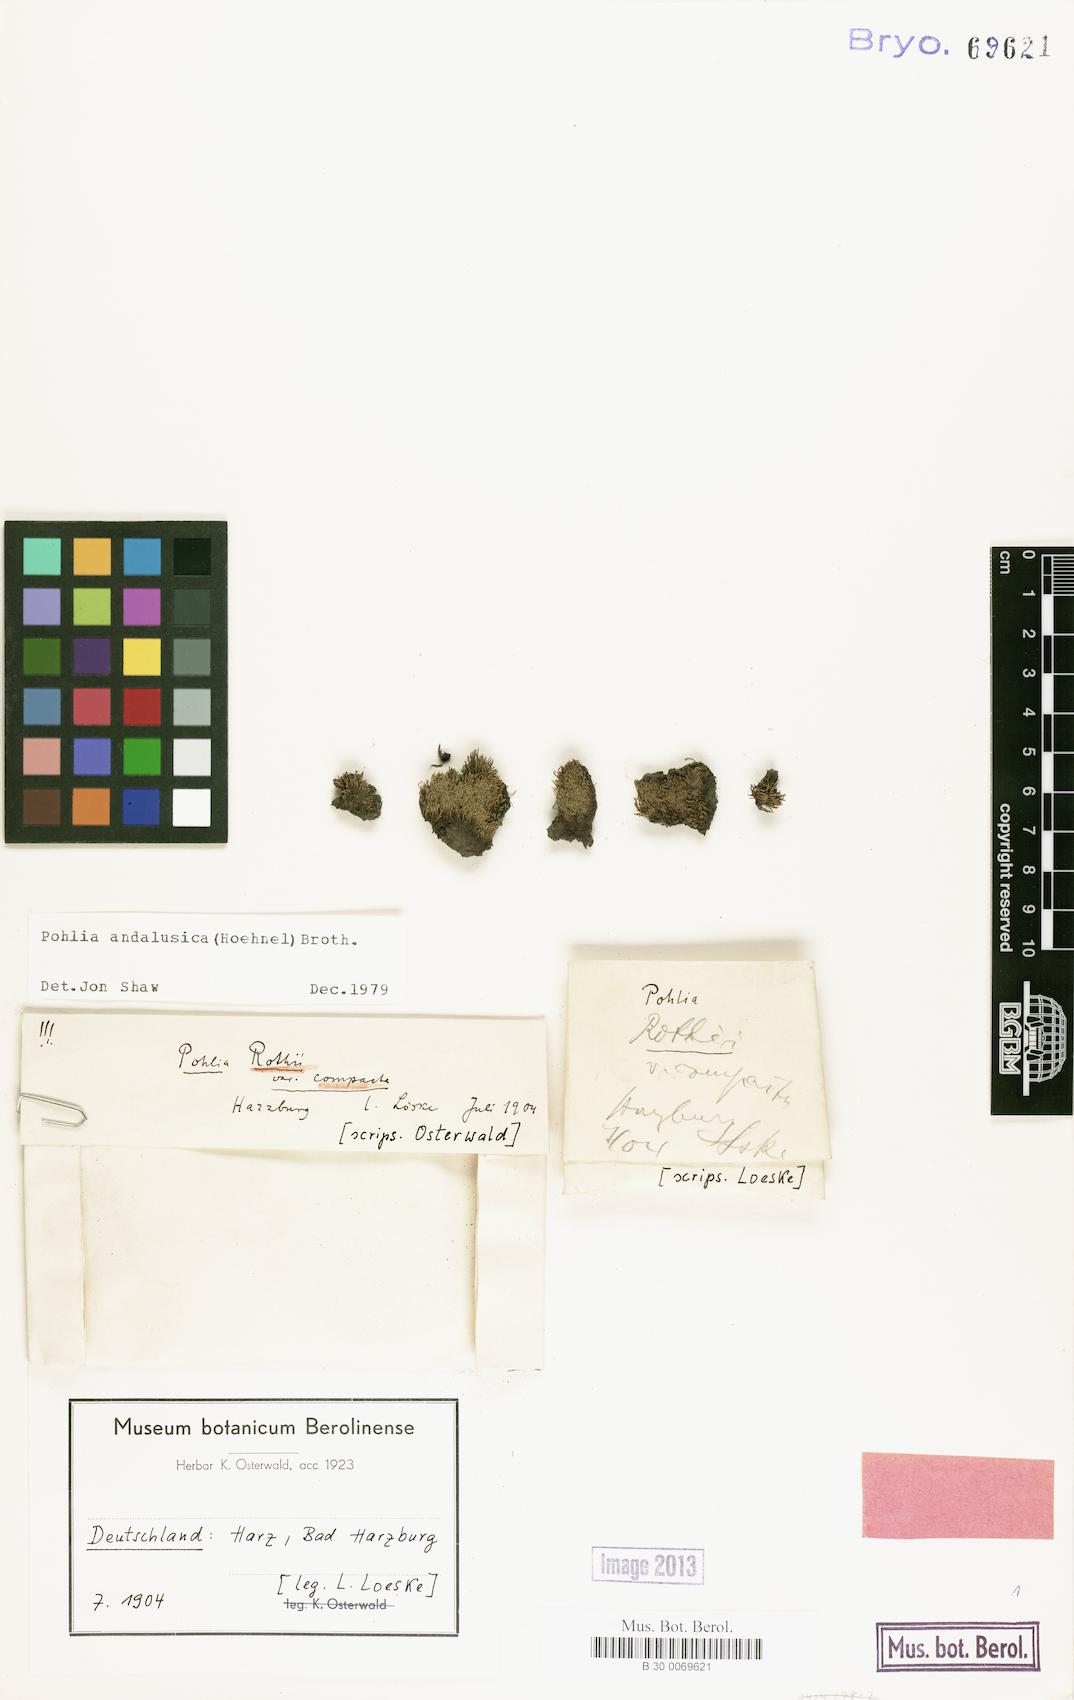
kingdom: Plantae
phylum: Bryophyta
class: Bryopsida
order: Bryales
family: Mniaceae
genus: Pohlia
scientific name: Pohlia andalusica
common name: Andalusian nodding moss
